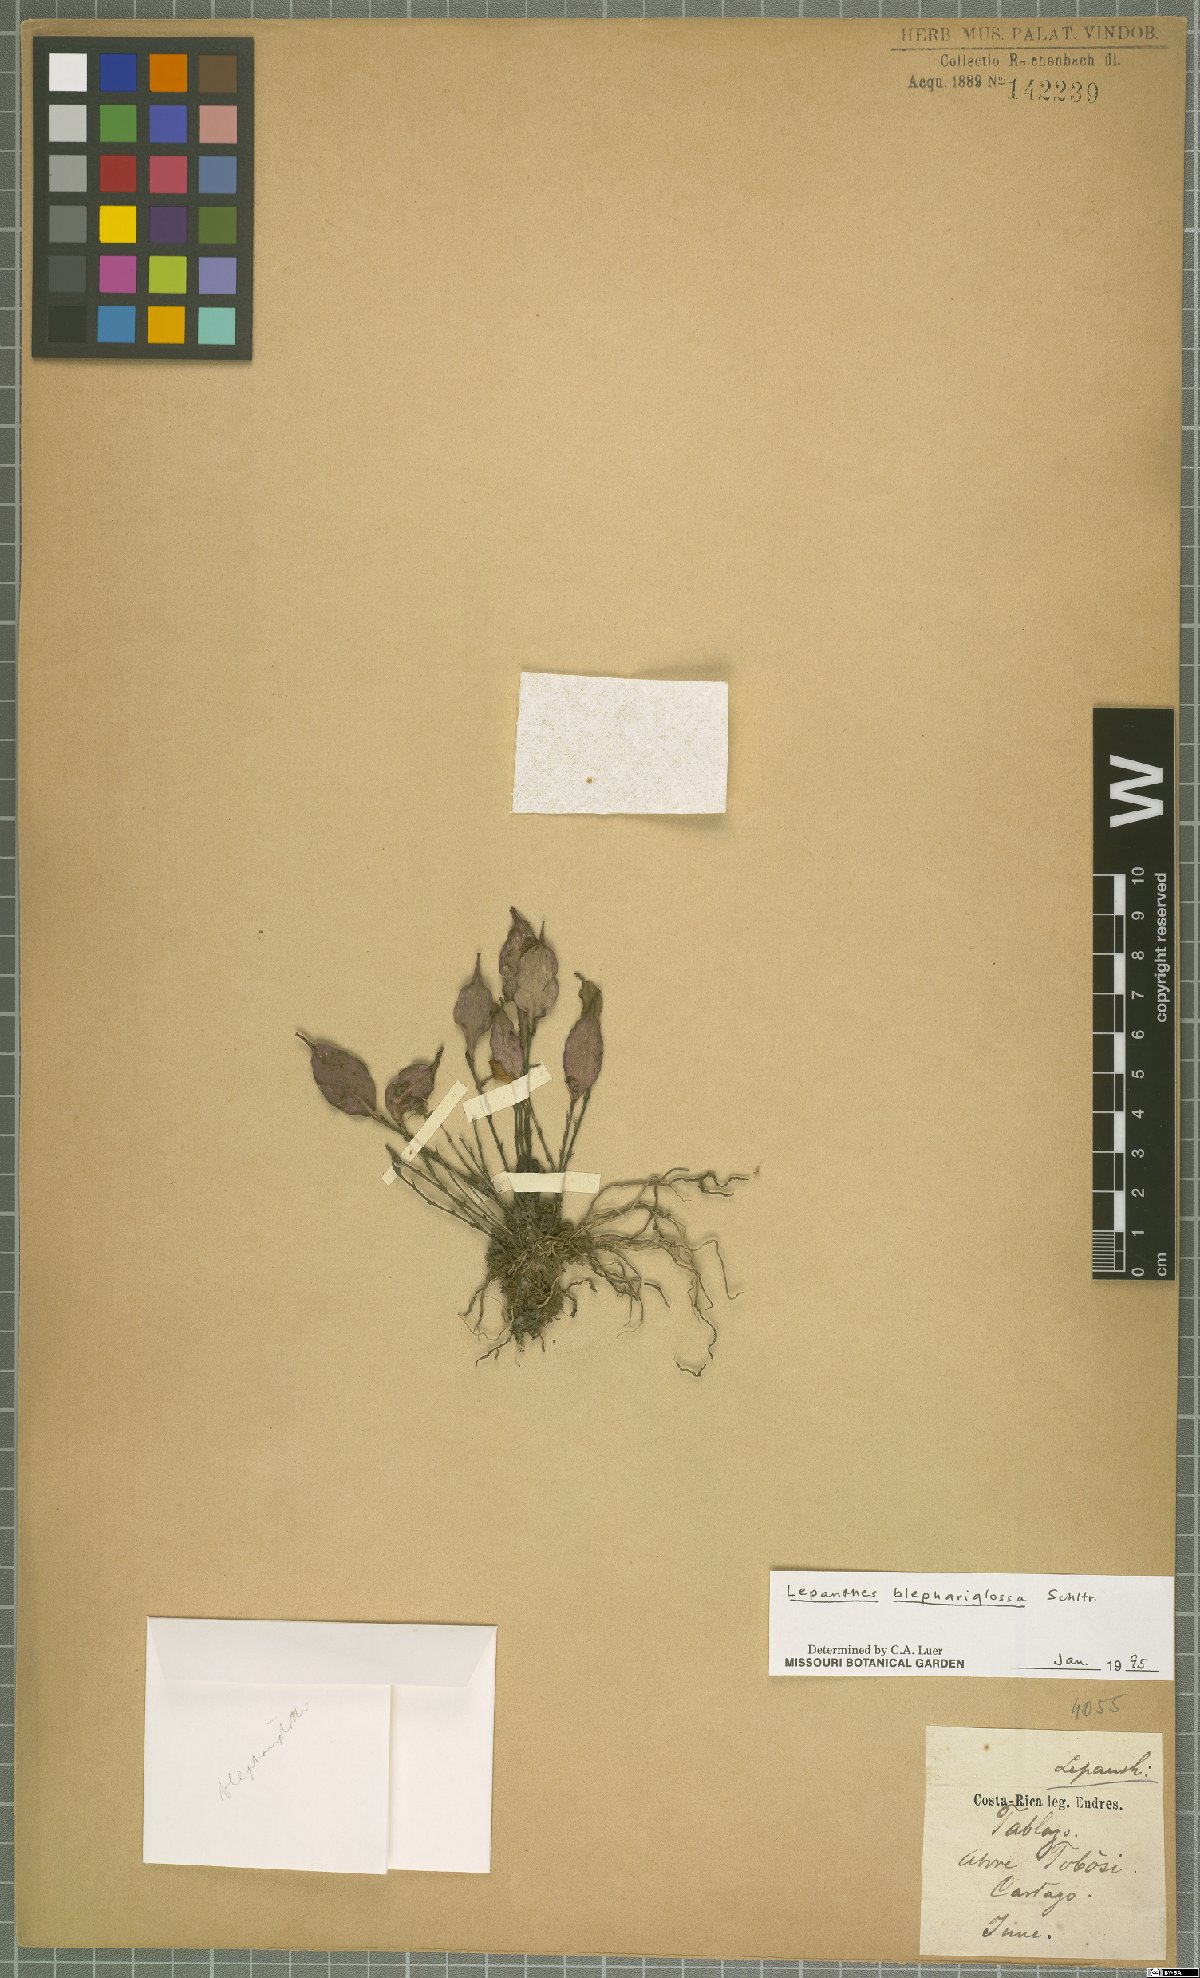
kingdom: Plantae
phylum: Tracheophyta
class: Liliopsida
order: Asparagales
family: Orchidaceae
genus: Lepanthes
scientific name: Lepanthes blephariglossa
